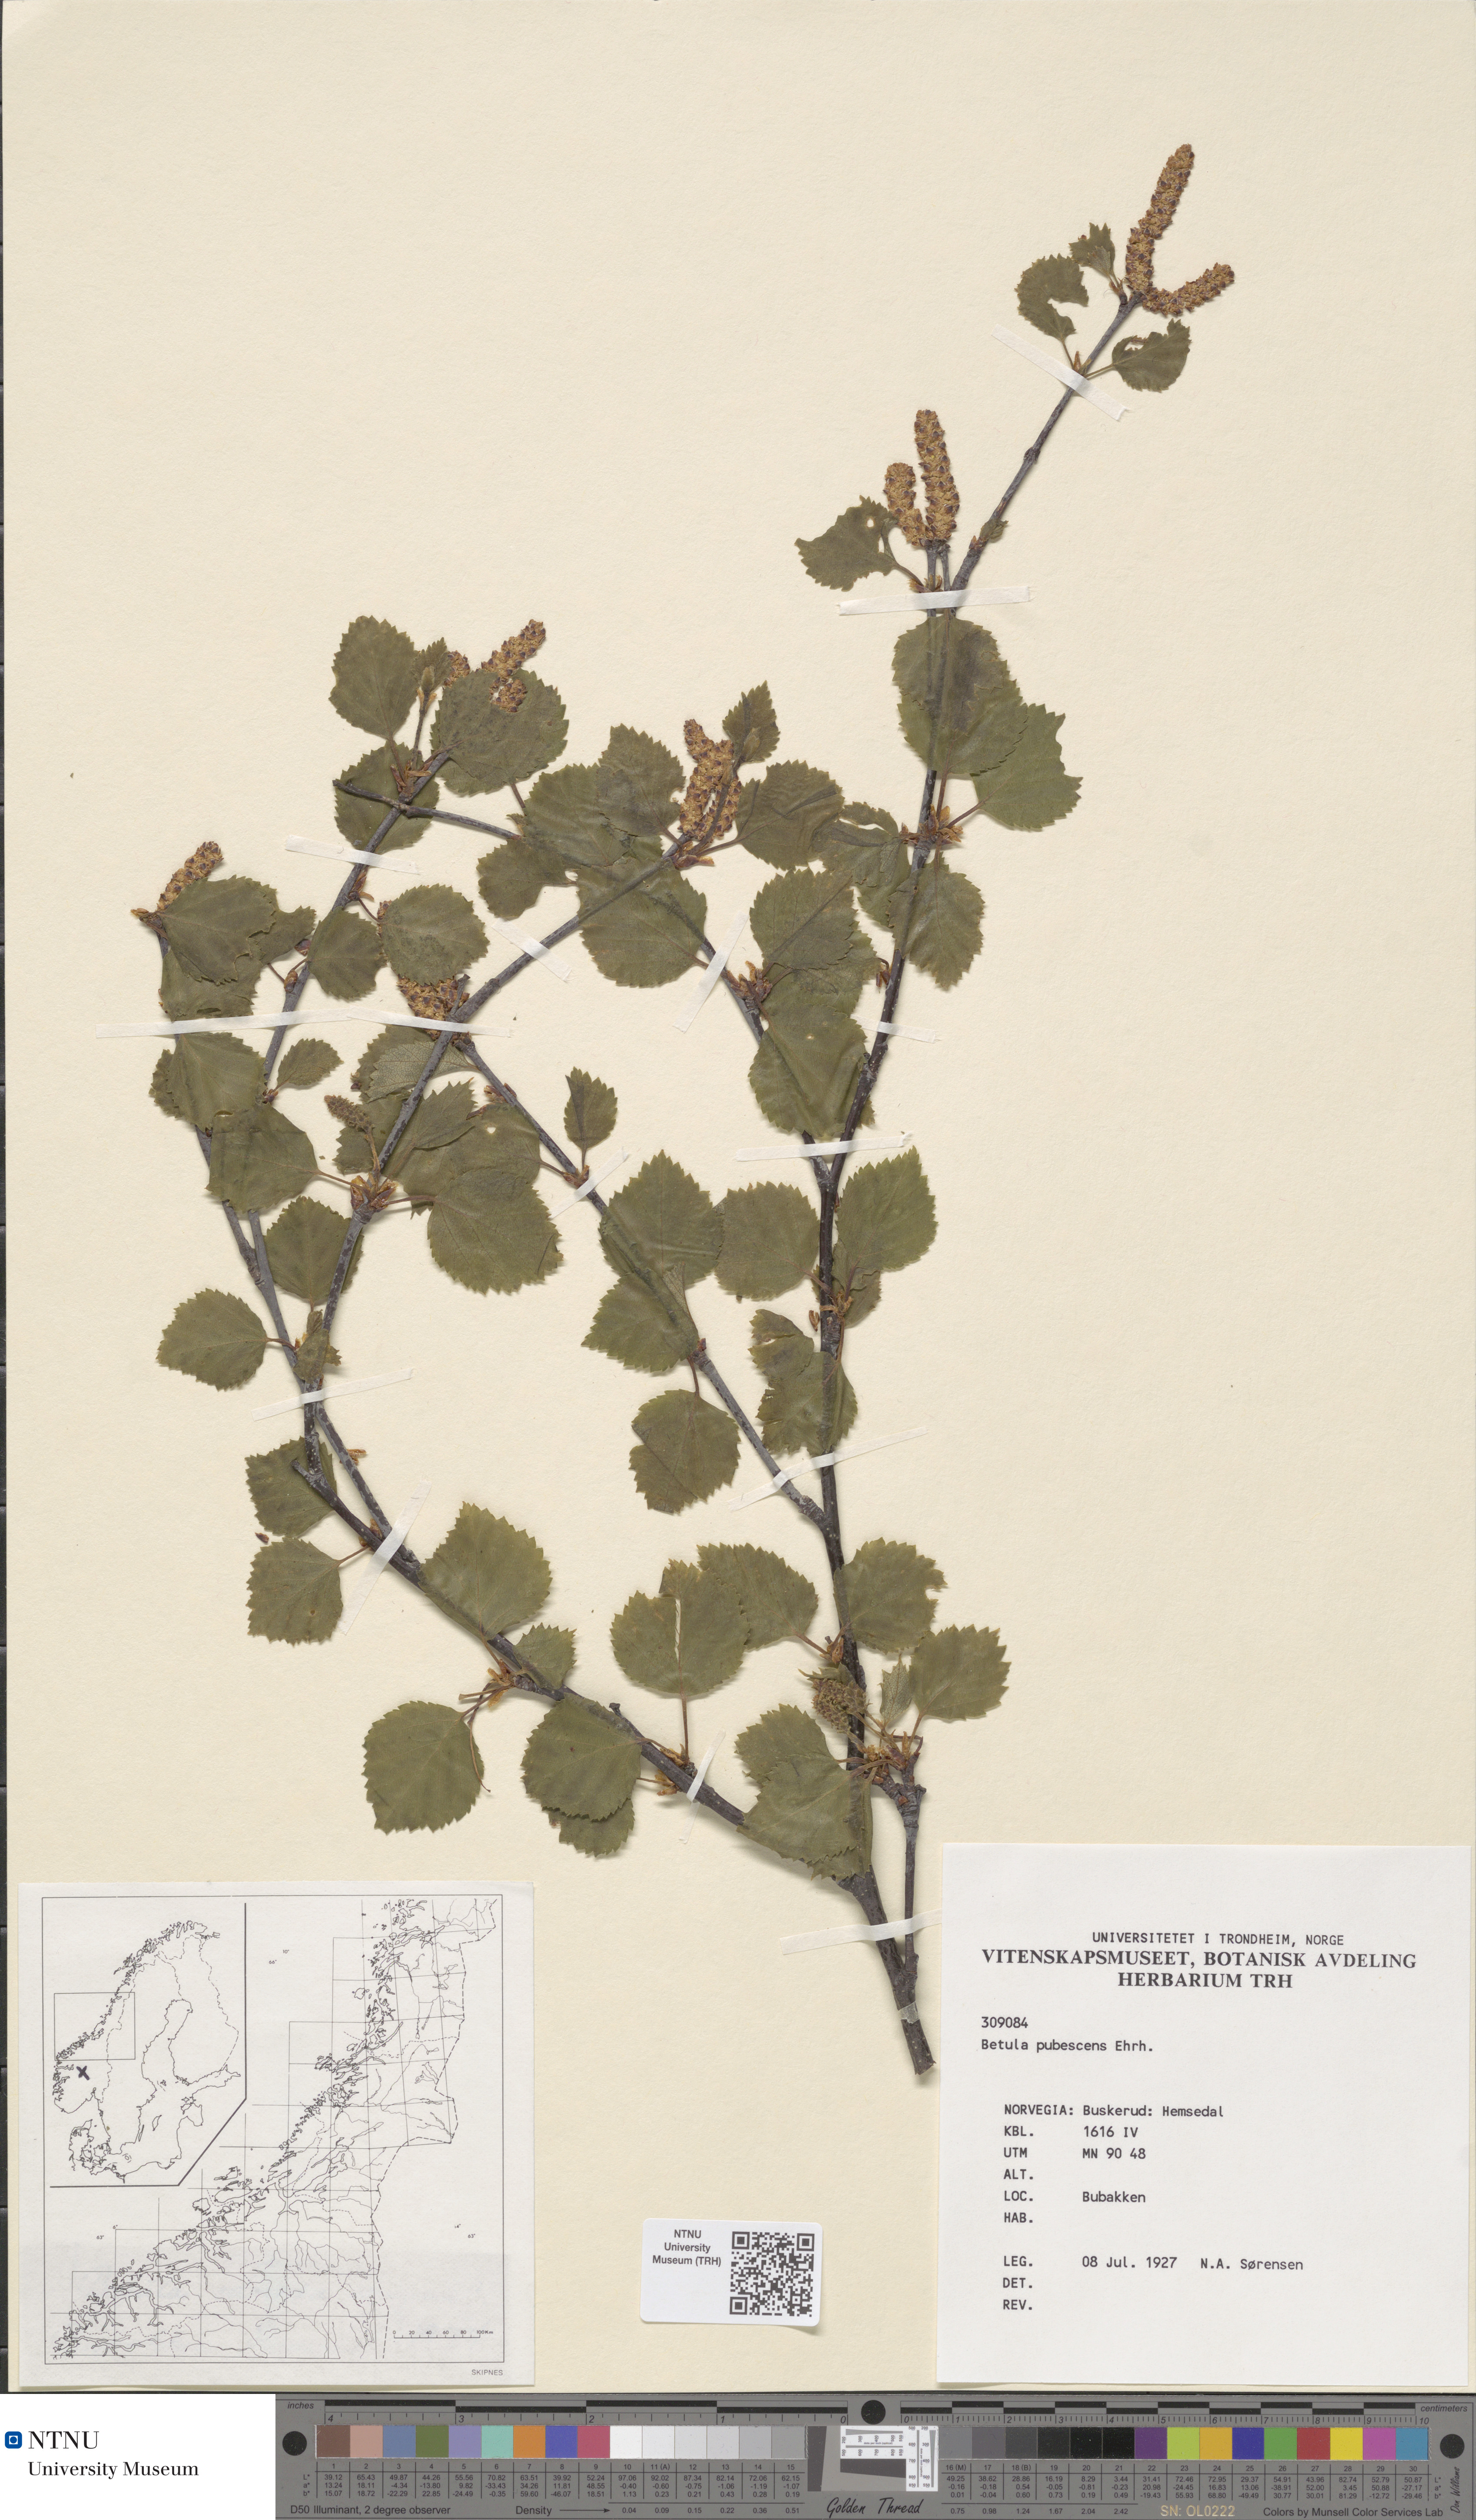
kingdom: Plantae
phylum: Tracheophyta
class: Magnoliopsida
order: Fagales
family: Betulaceae
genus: Betula
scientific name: Betula pubescens
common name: Downy birch
